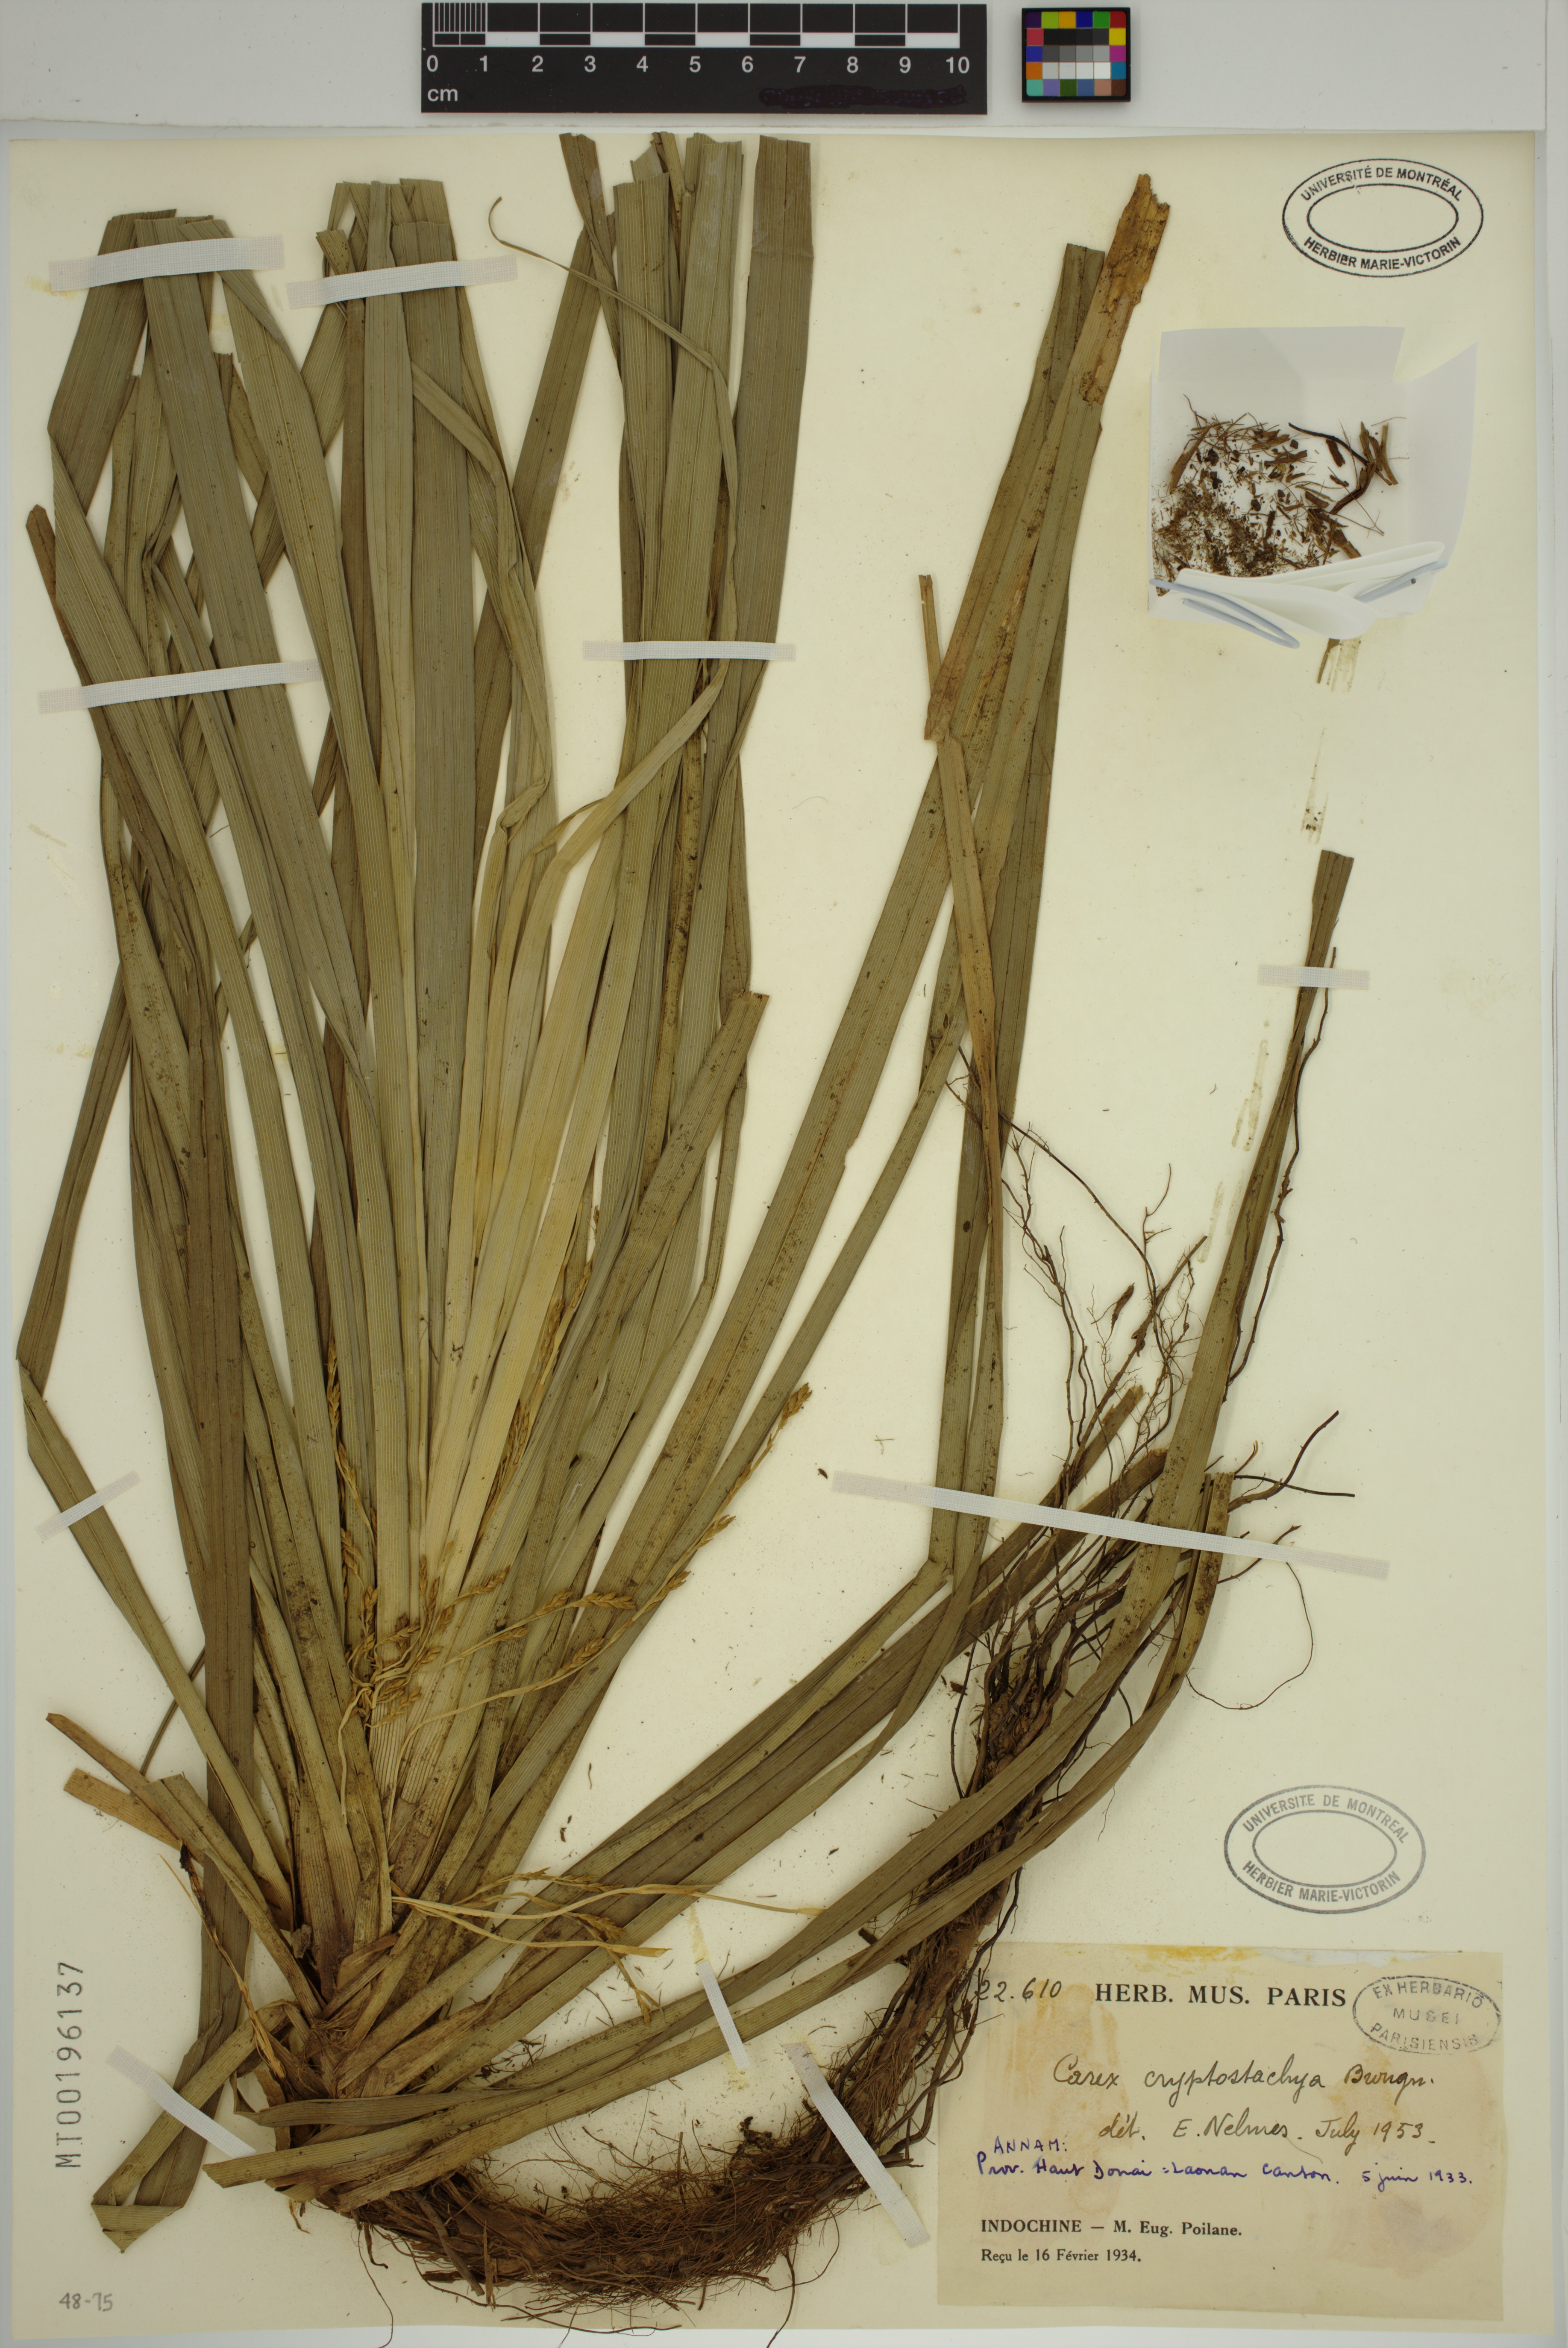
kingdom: Plantae
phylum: Tracheophyta
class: Liliopsida
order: Poales
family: Cyperaceae
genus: Carex
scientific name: Carex cryptostachys
